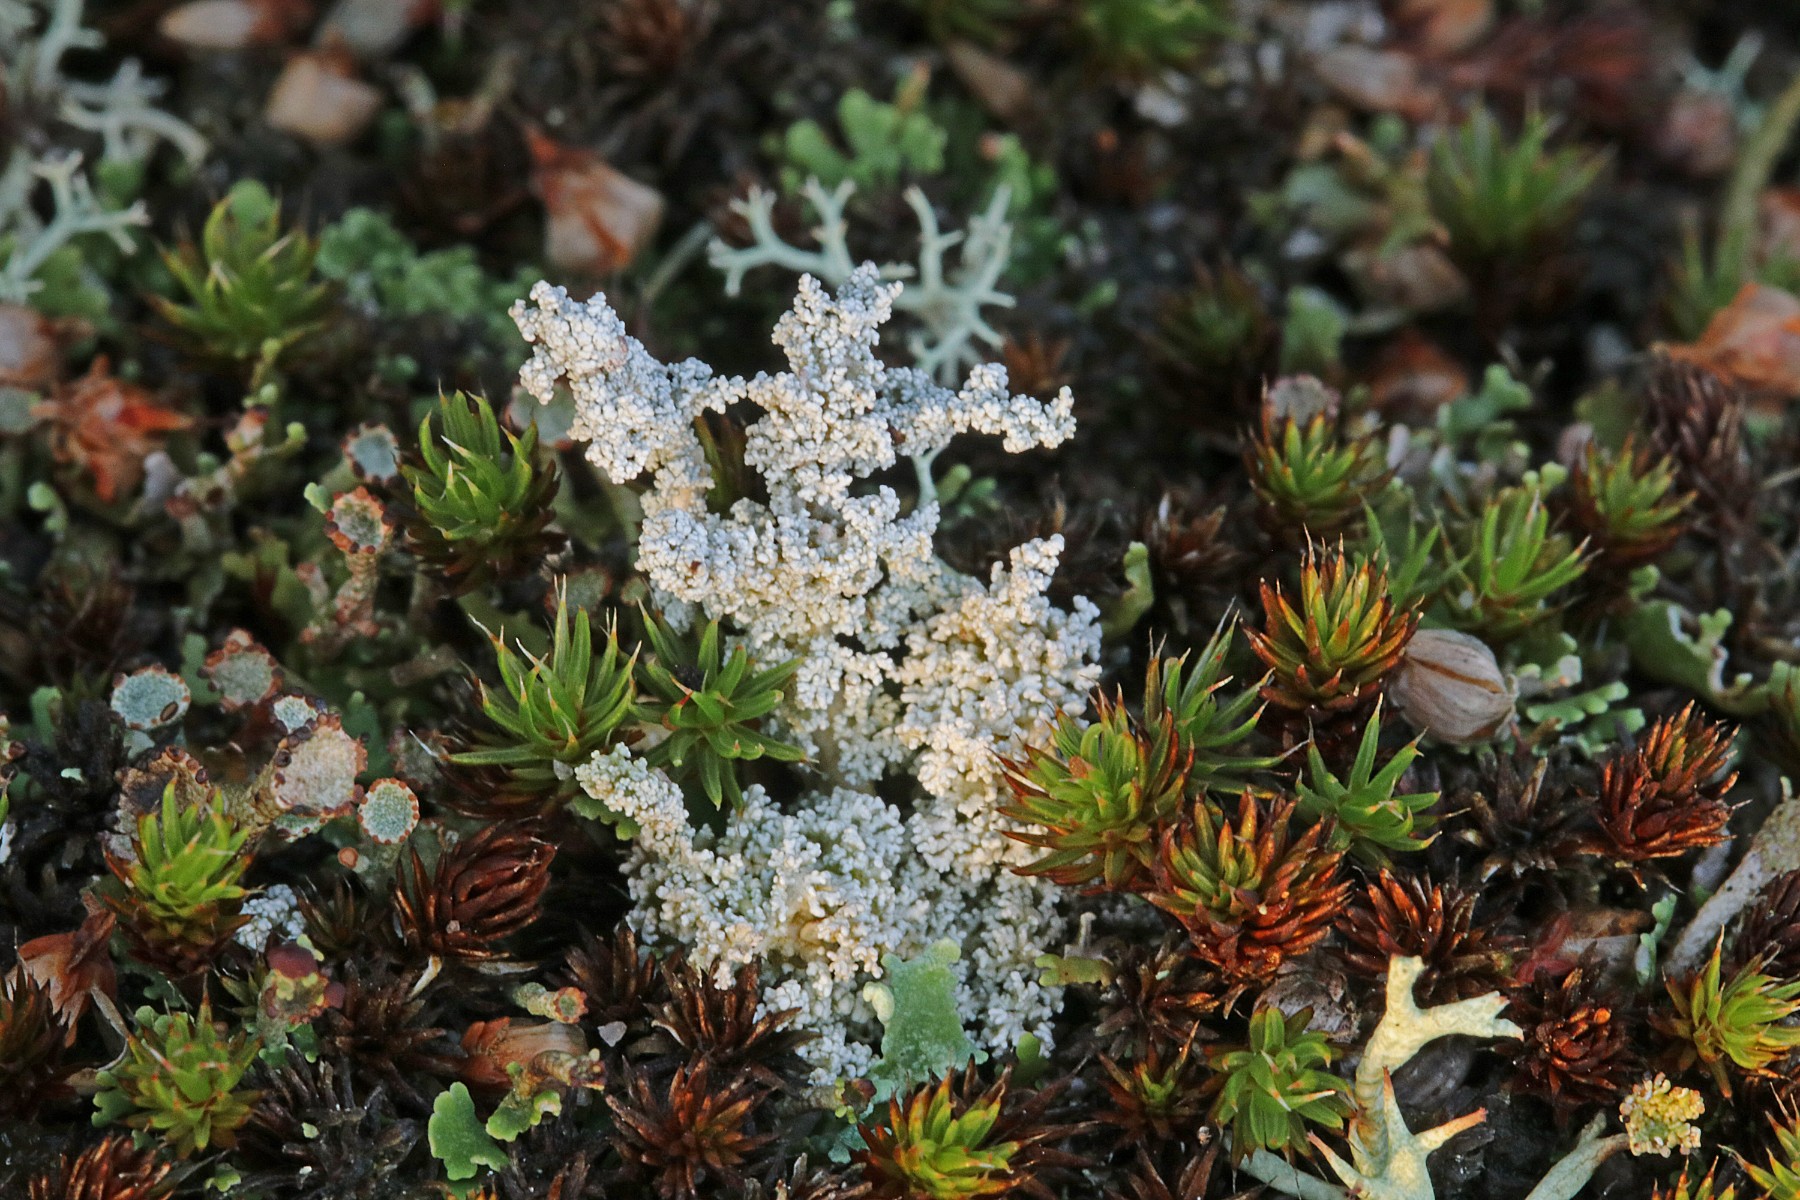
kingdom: Fungi
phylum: Ascomycota
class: Lecanoromycetes
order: Lecanorales
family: Stereocaulaceae
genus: Stereocaulon
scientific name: Stereocaulon saxatile
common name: klit-korallav
